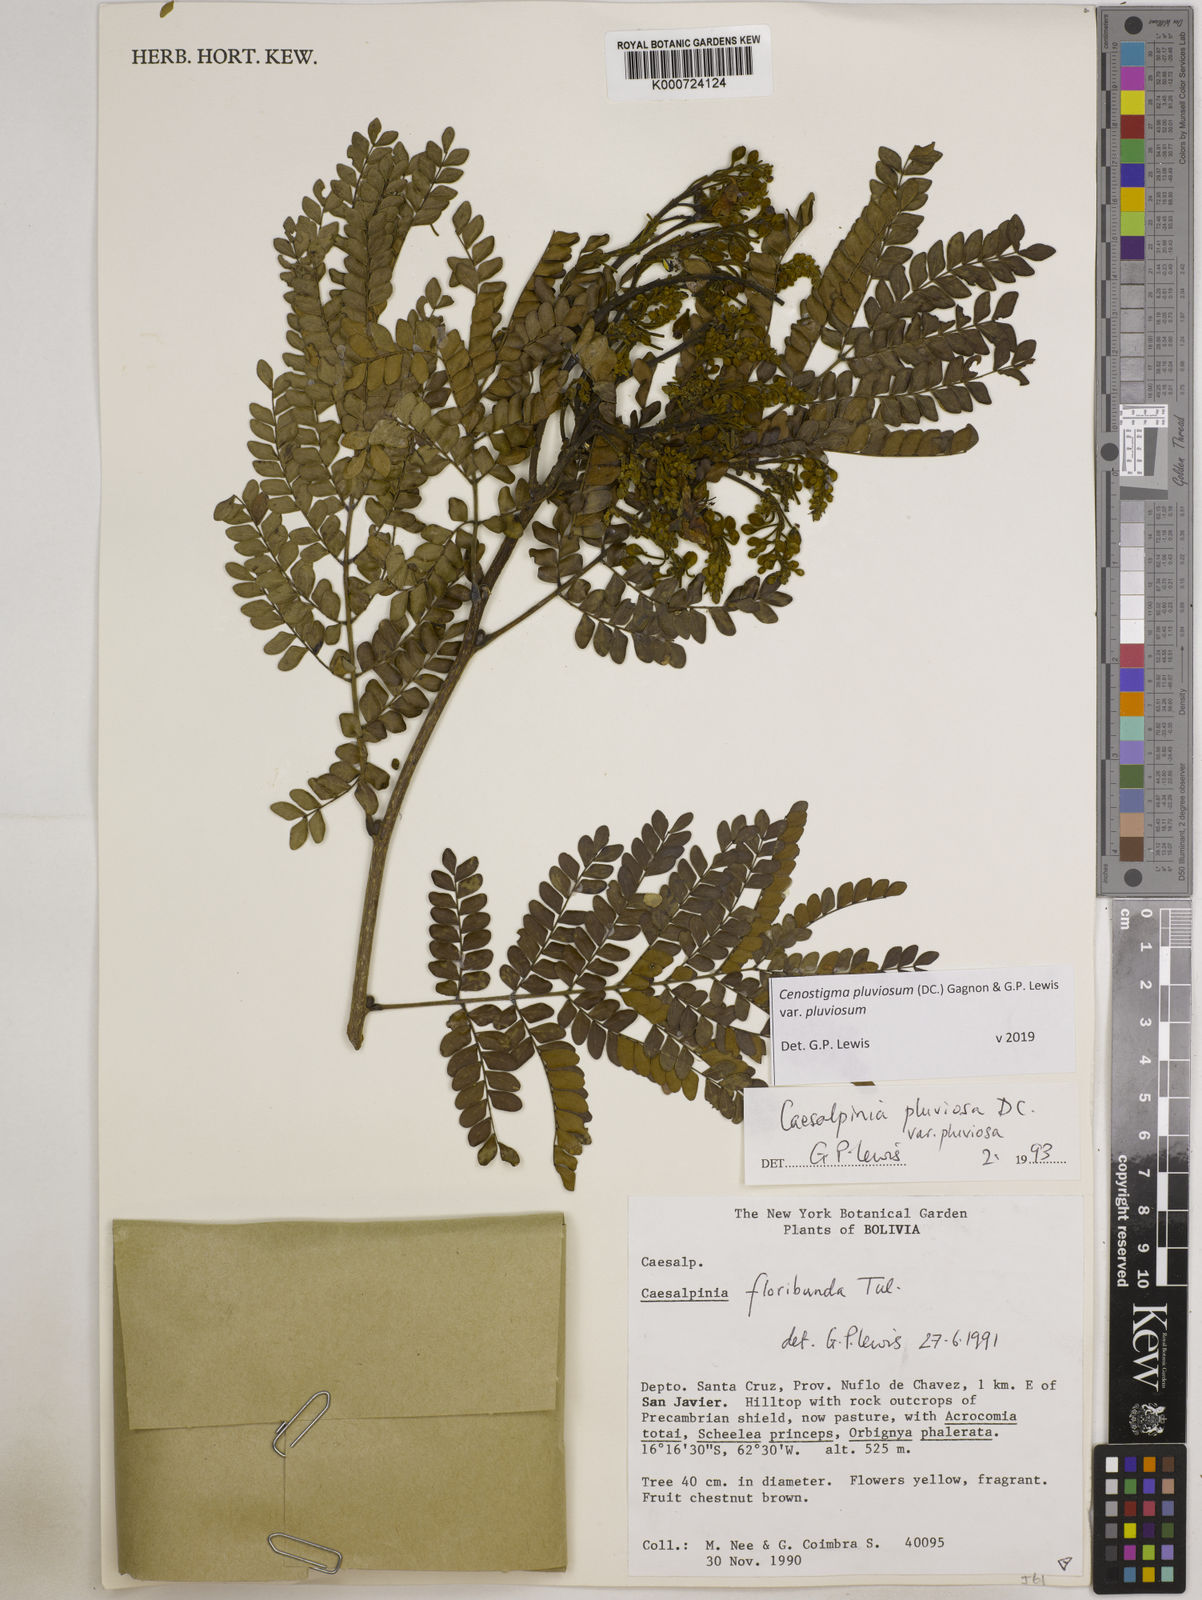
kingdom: Plantae
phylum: Tracheophyta
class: Magnoliopsida
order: Fabales
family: Fabaceae
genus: Cenostigma
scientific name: Cenostigma pluviosum
